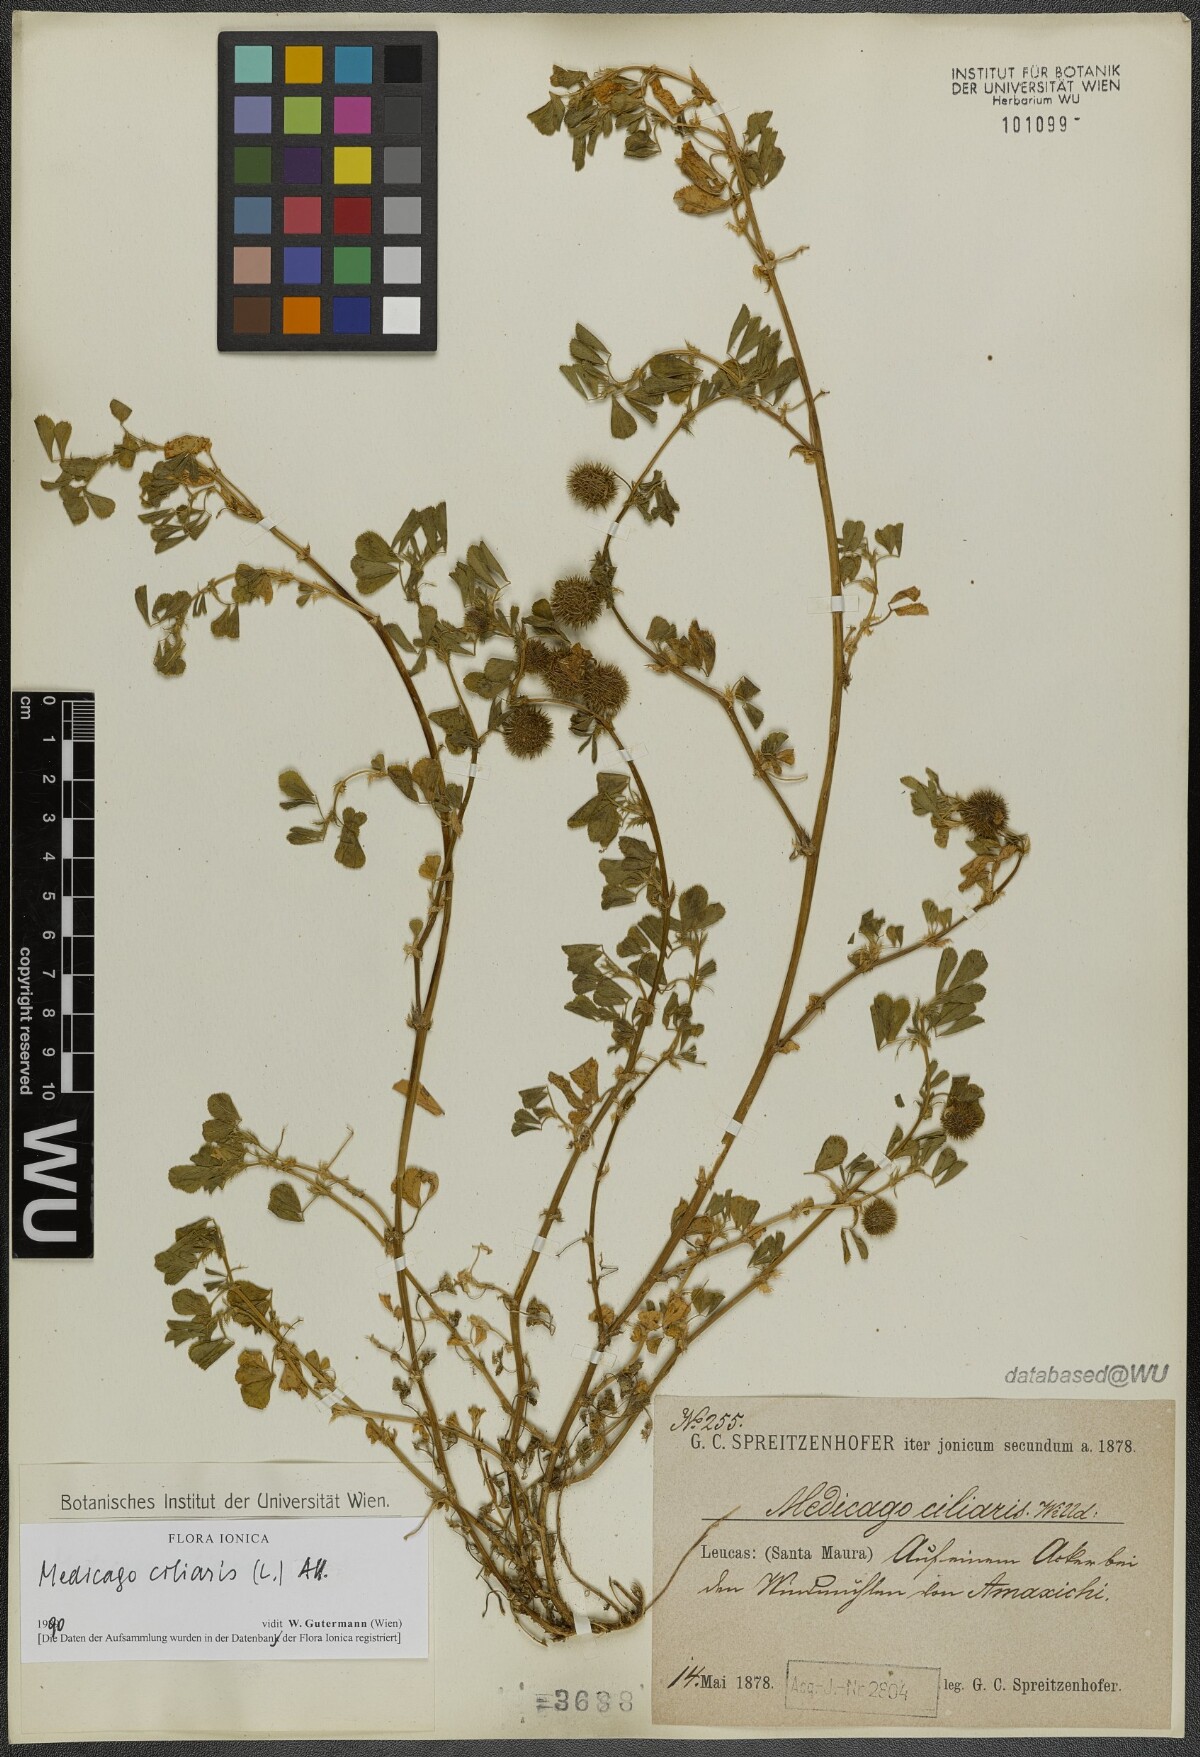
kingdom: Plantae
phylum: Tracheophyta
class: Magnoliopsida
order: Fabales
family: Fabaceae
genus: Medicago
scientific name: Medicago ciliaris
